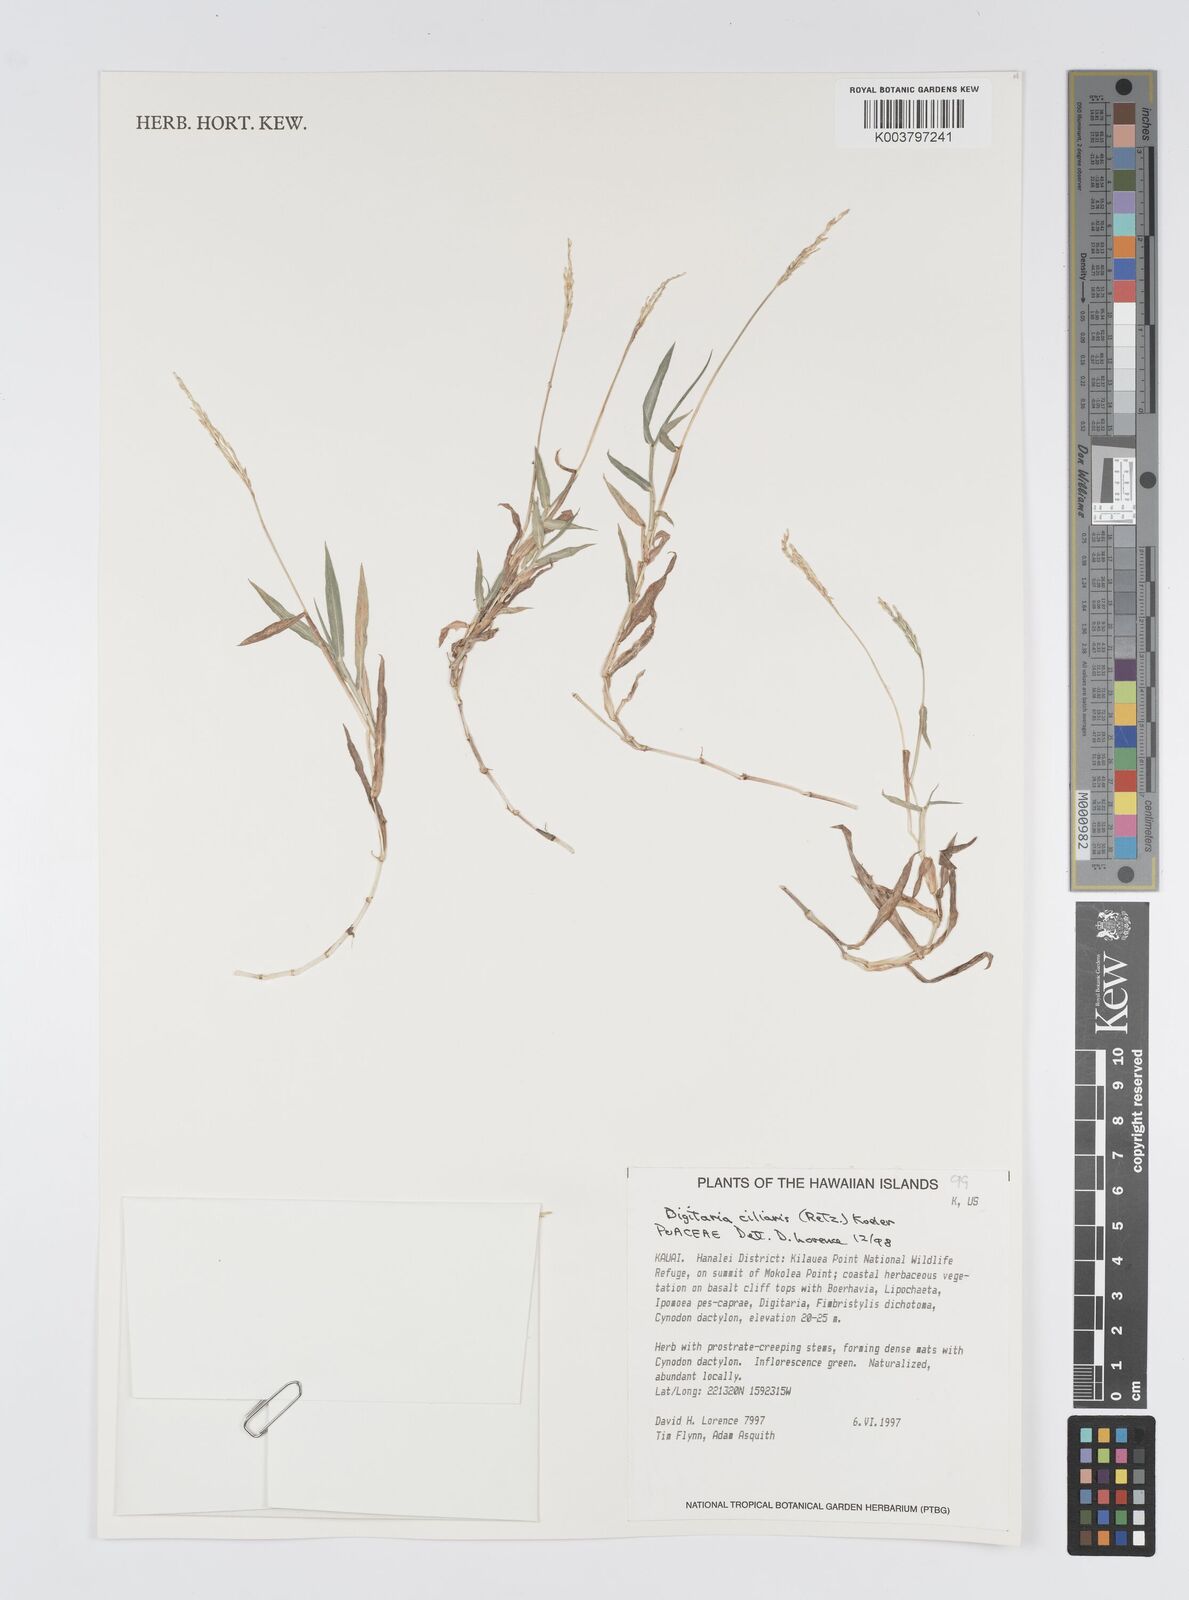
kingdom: Plantae
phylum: Tracheophyta
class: Liliopsida
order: Poales
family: Poaceae
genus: Digitaria
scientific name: Digitaria ciliaris
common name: Tropical finger-grass
